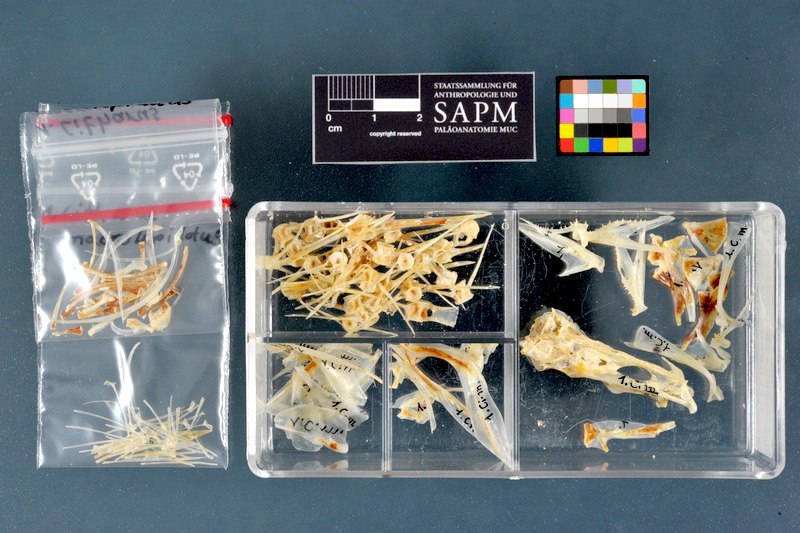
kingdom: Animalia
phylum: Chordata
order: Pleuronectiformes
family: Citharidae
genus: Citharus
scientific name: Citharus linguatula
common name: Atlantic spotted flounder
